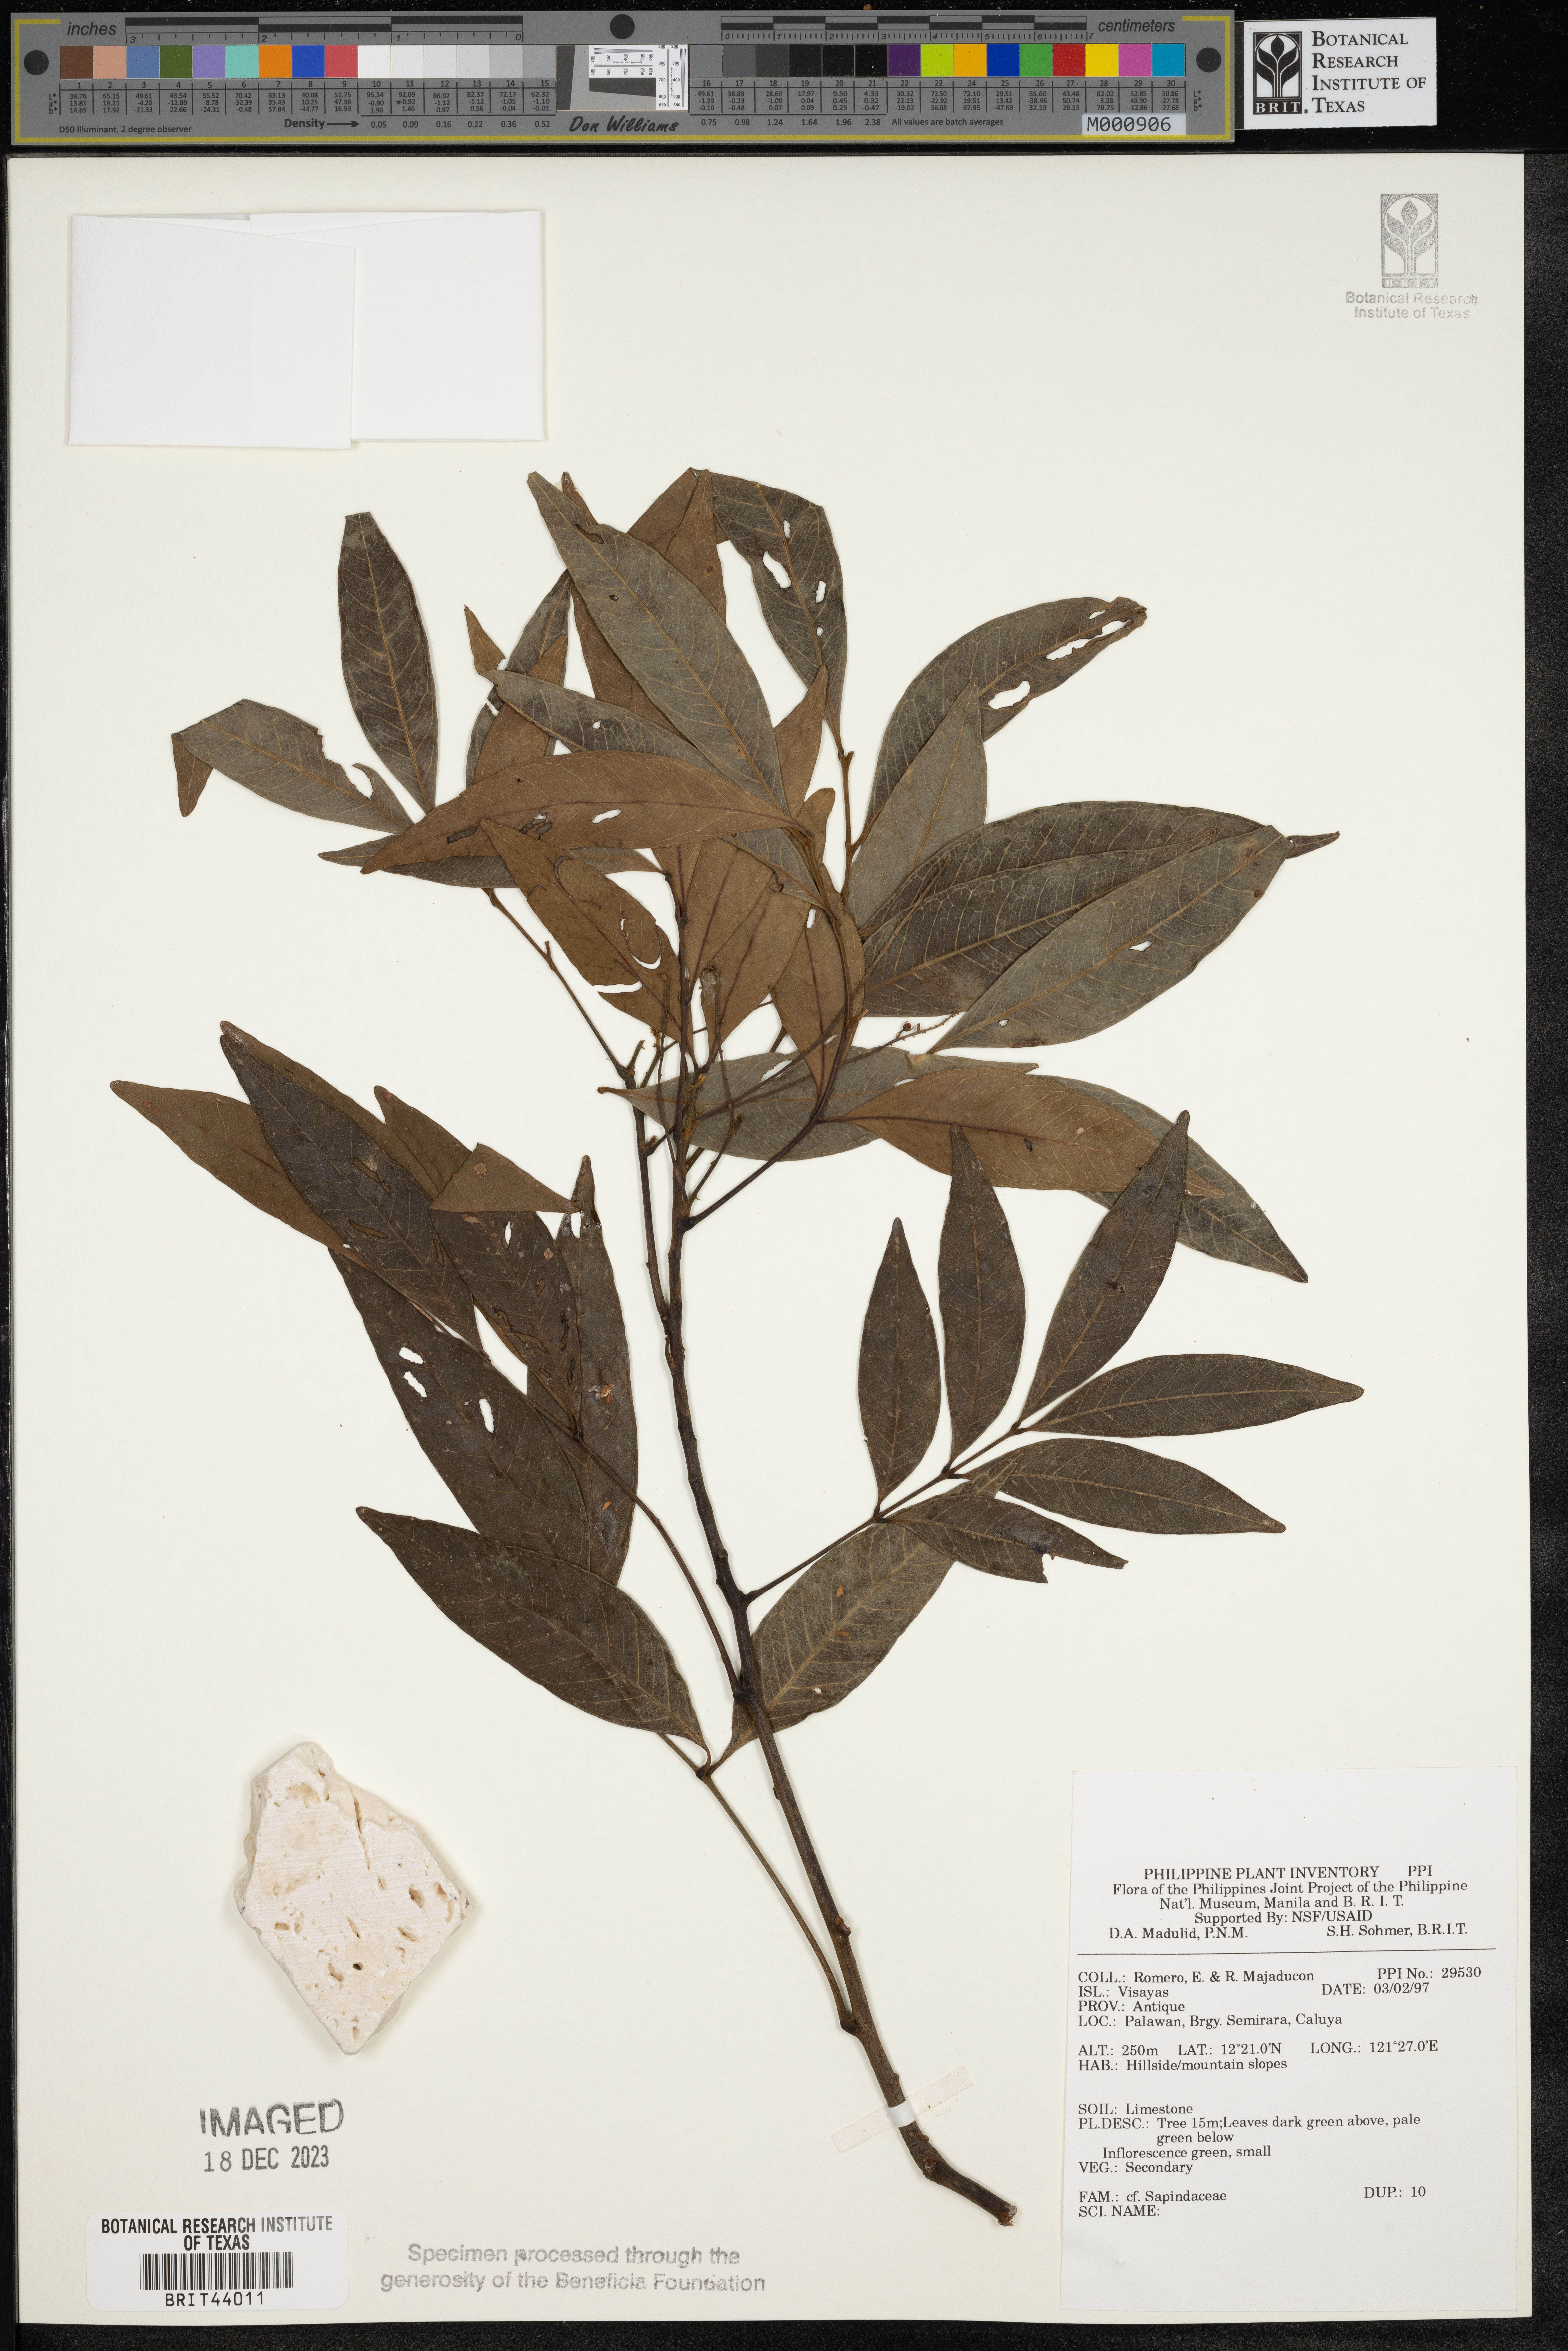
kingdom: Plantae
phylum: Tracheophyta
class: Magnoliopsida
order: Sapindales
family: Sapindaceae
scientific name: Sapindaceae
